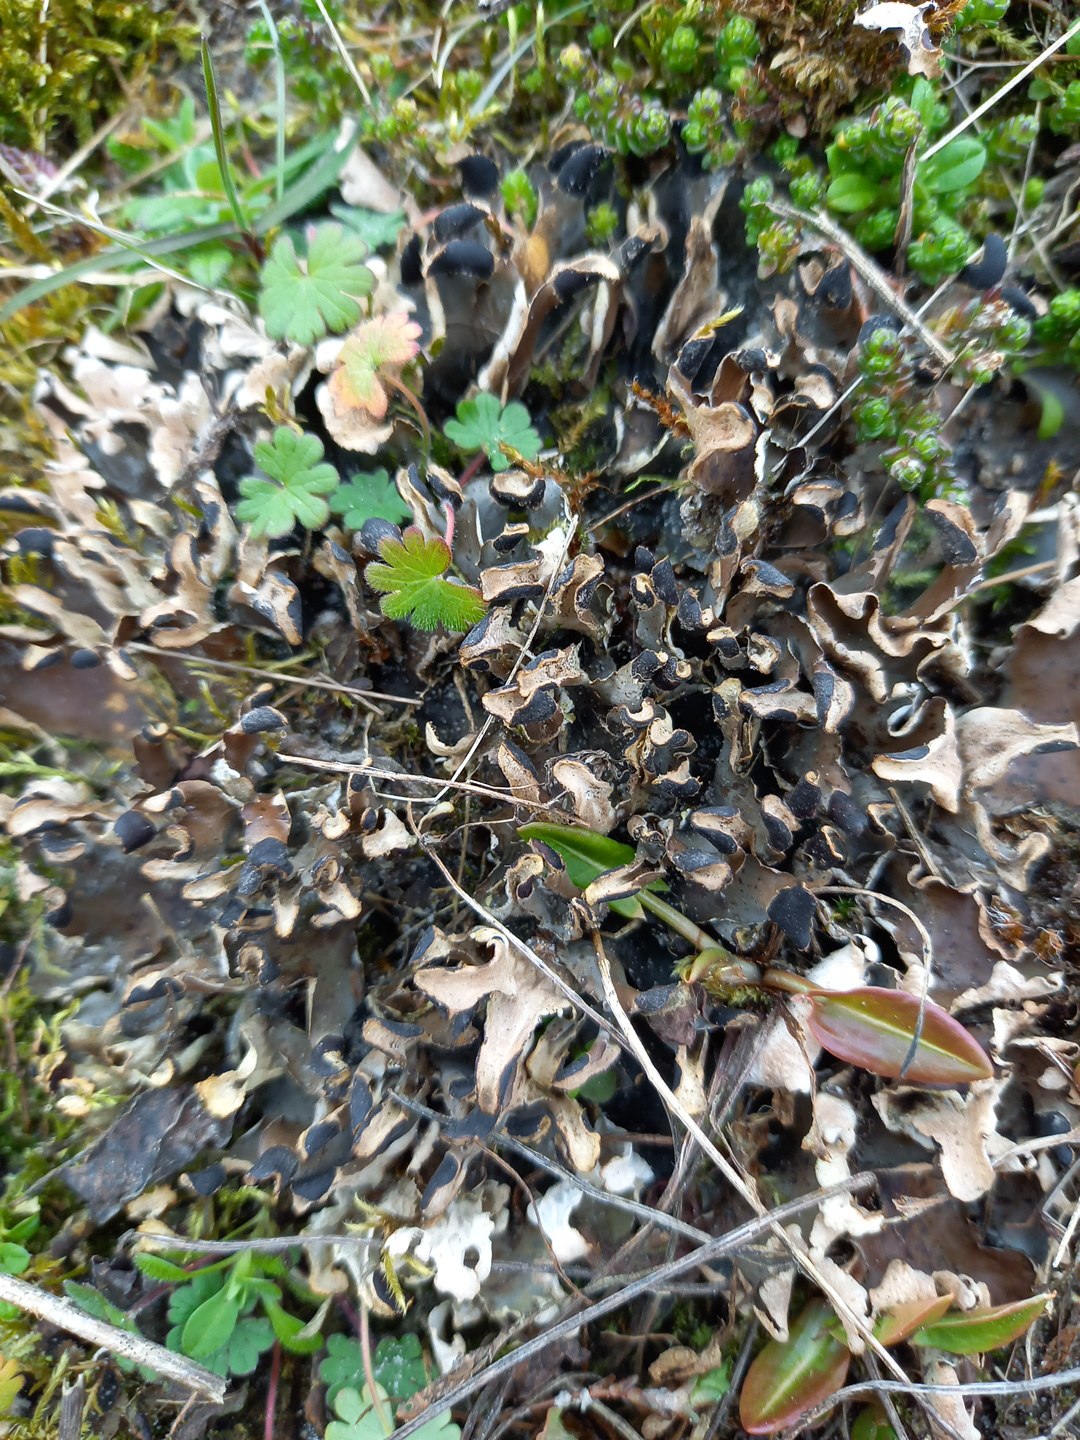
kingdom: Fungi
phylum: Ascomycota
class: Lecanoromycetes
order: Peltigerales
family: Peltigeraceae
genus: Peltigera
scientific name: Peltigera neckeri
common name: glinsende skjoldlav
